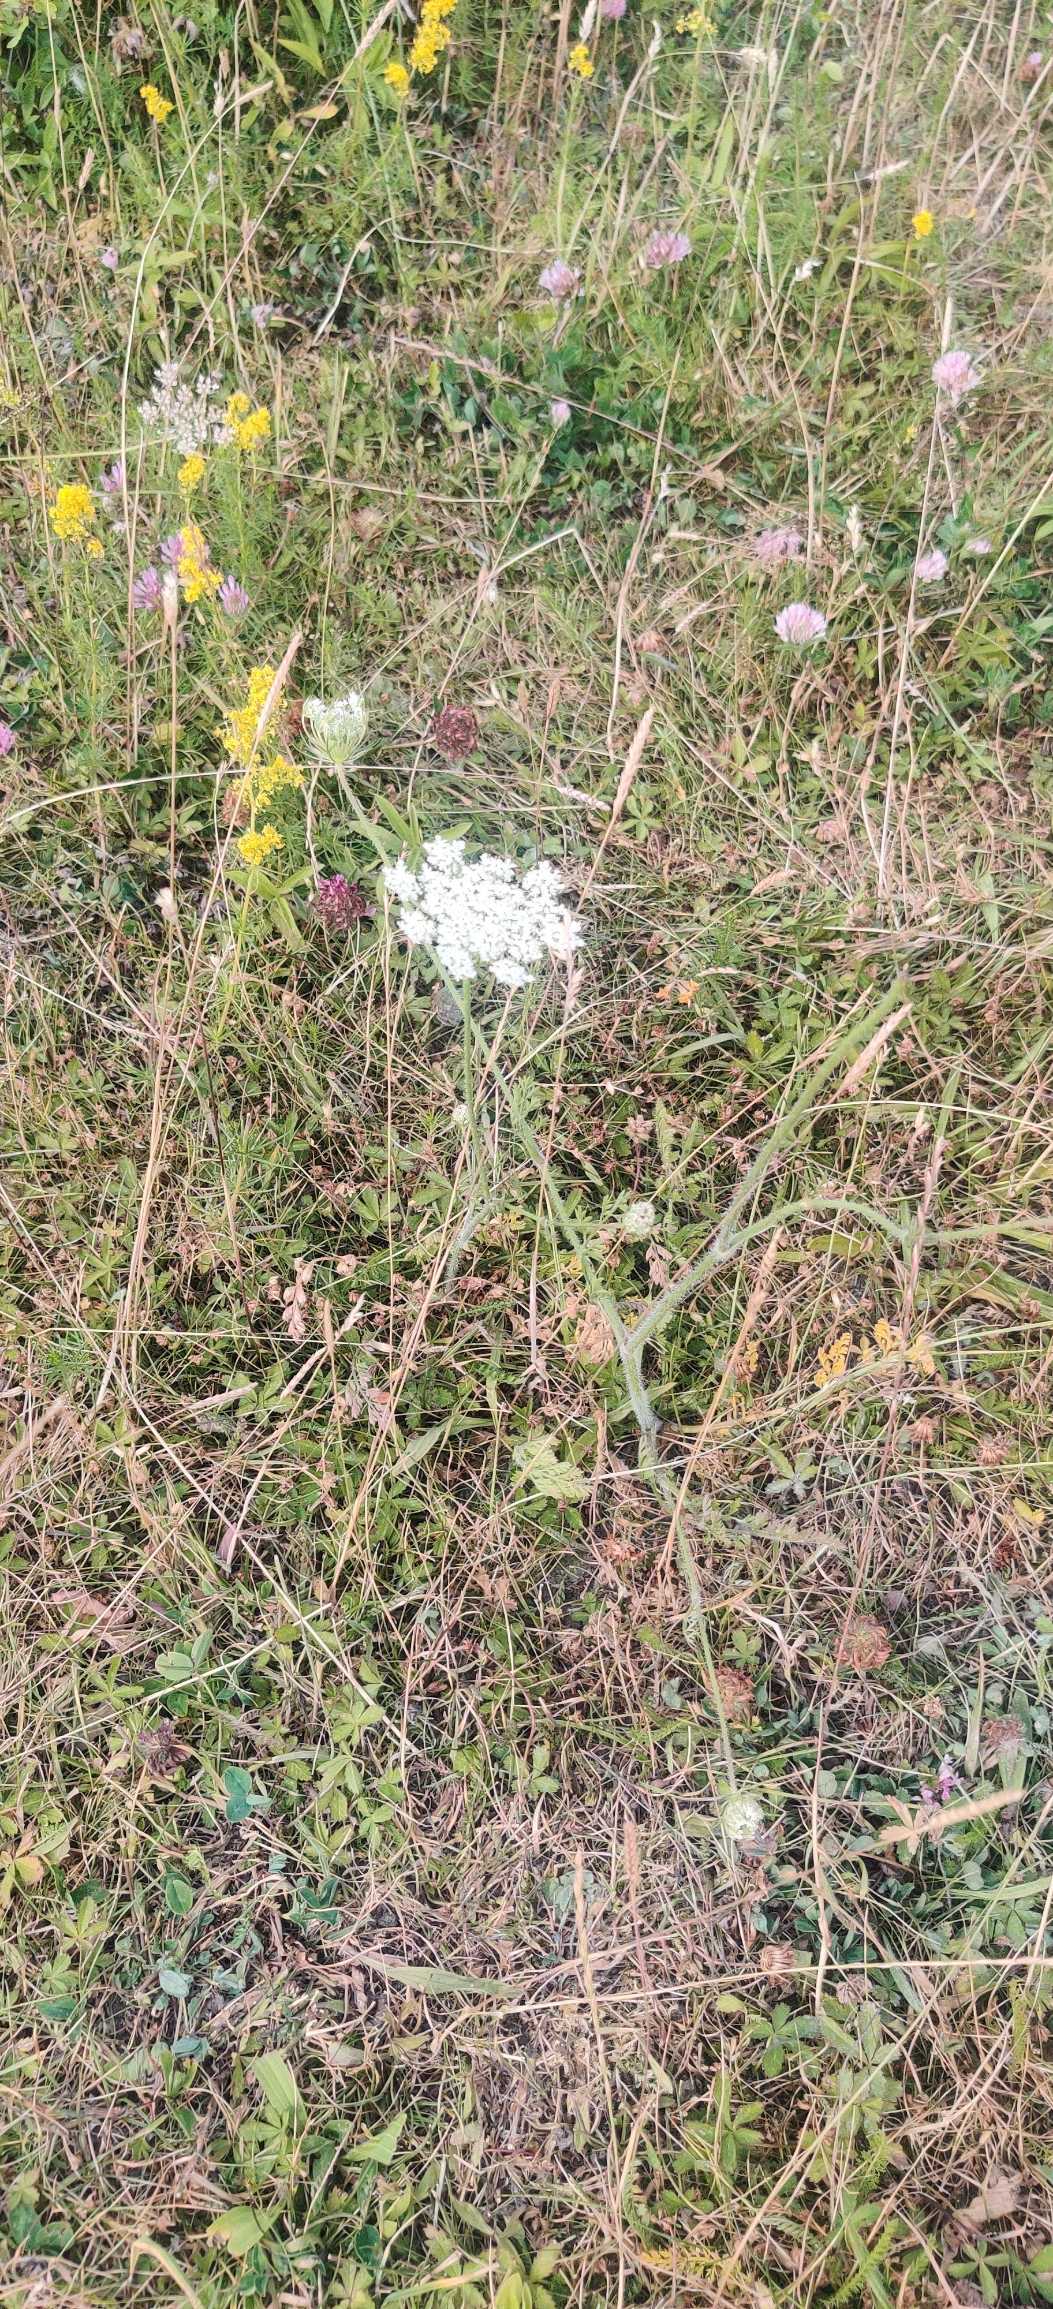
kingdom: Plantae
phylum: Tracheophyta
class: Magnoliopsida
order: Apiales
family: Apiaceae
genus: Daucus
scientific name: Daucus carota
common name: Vild gulerod
